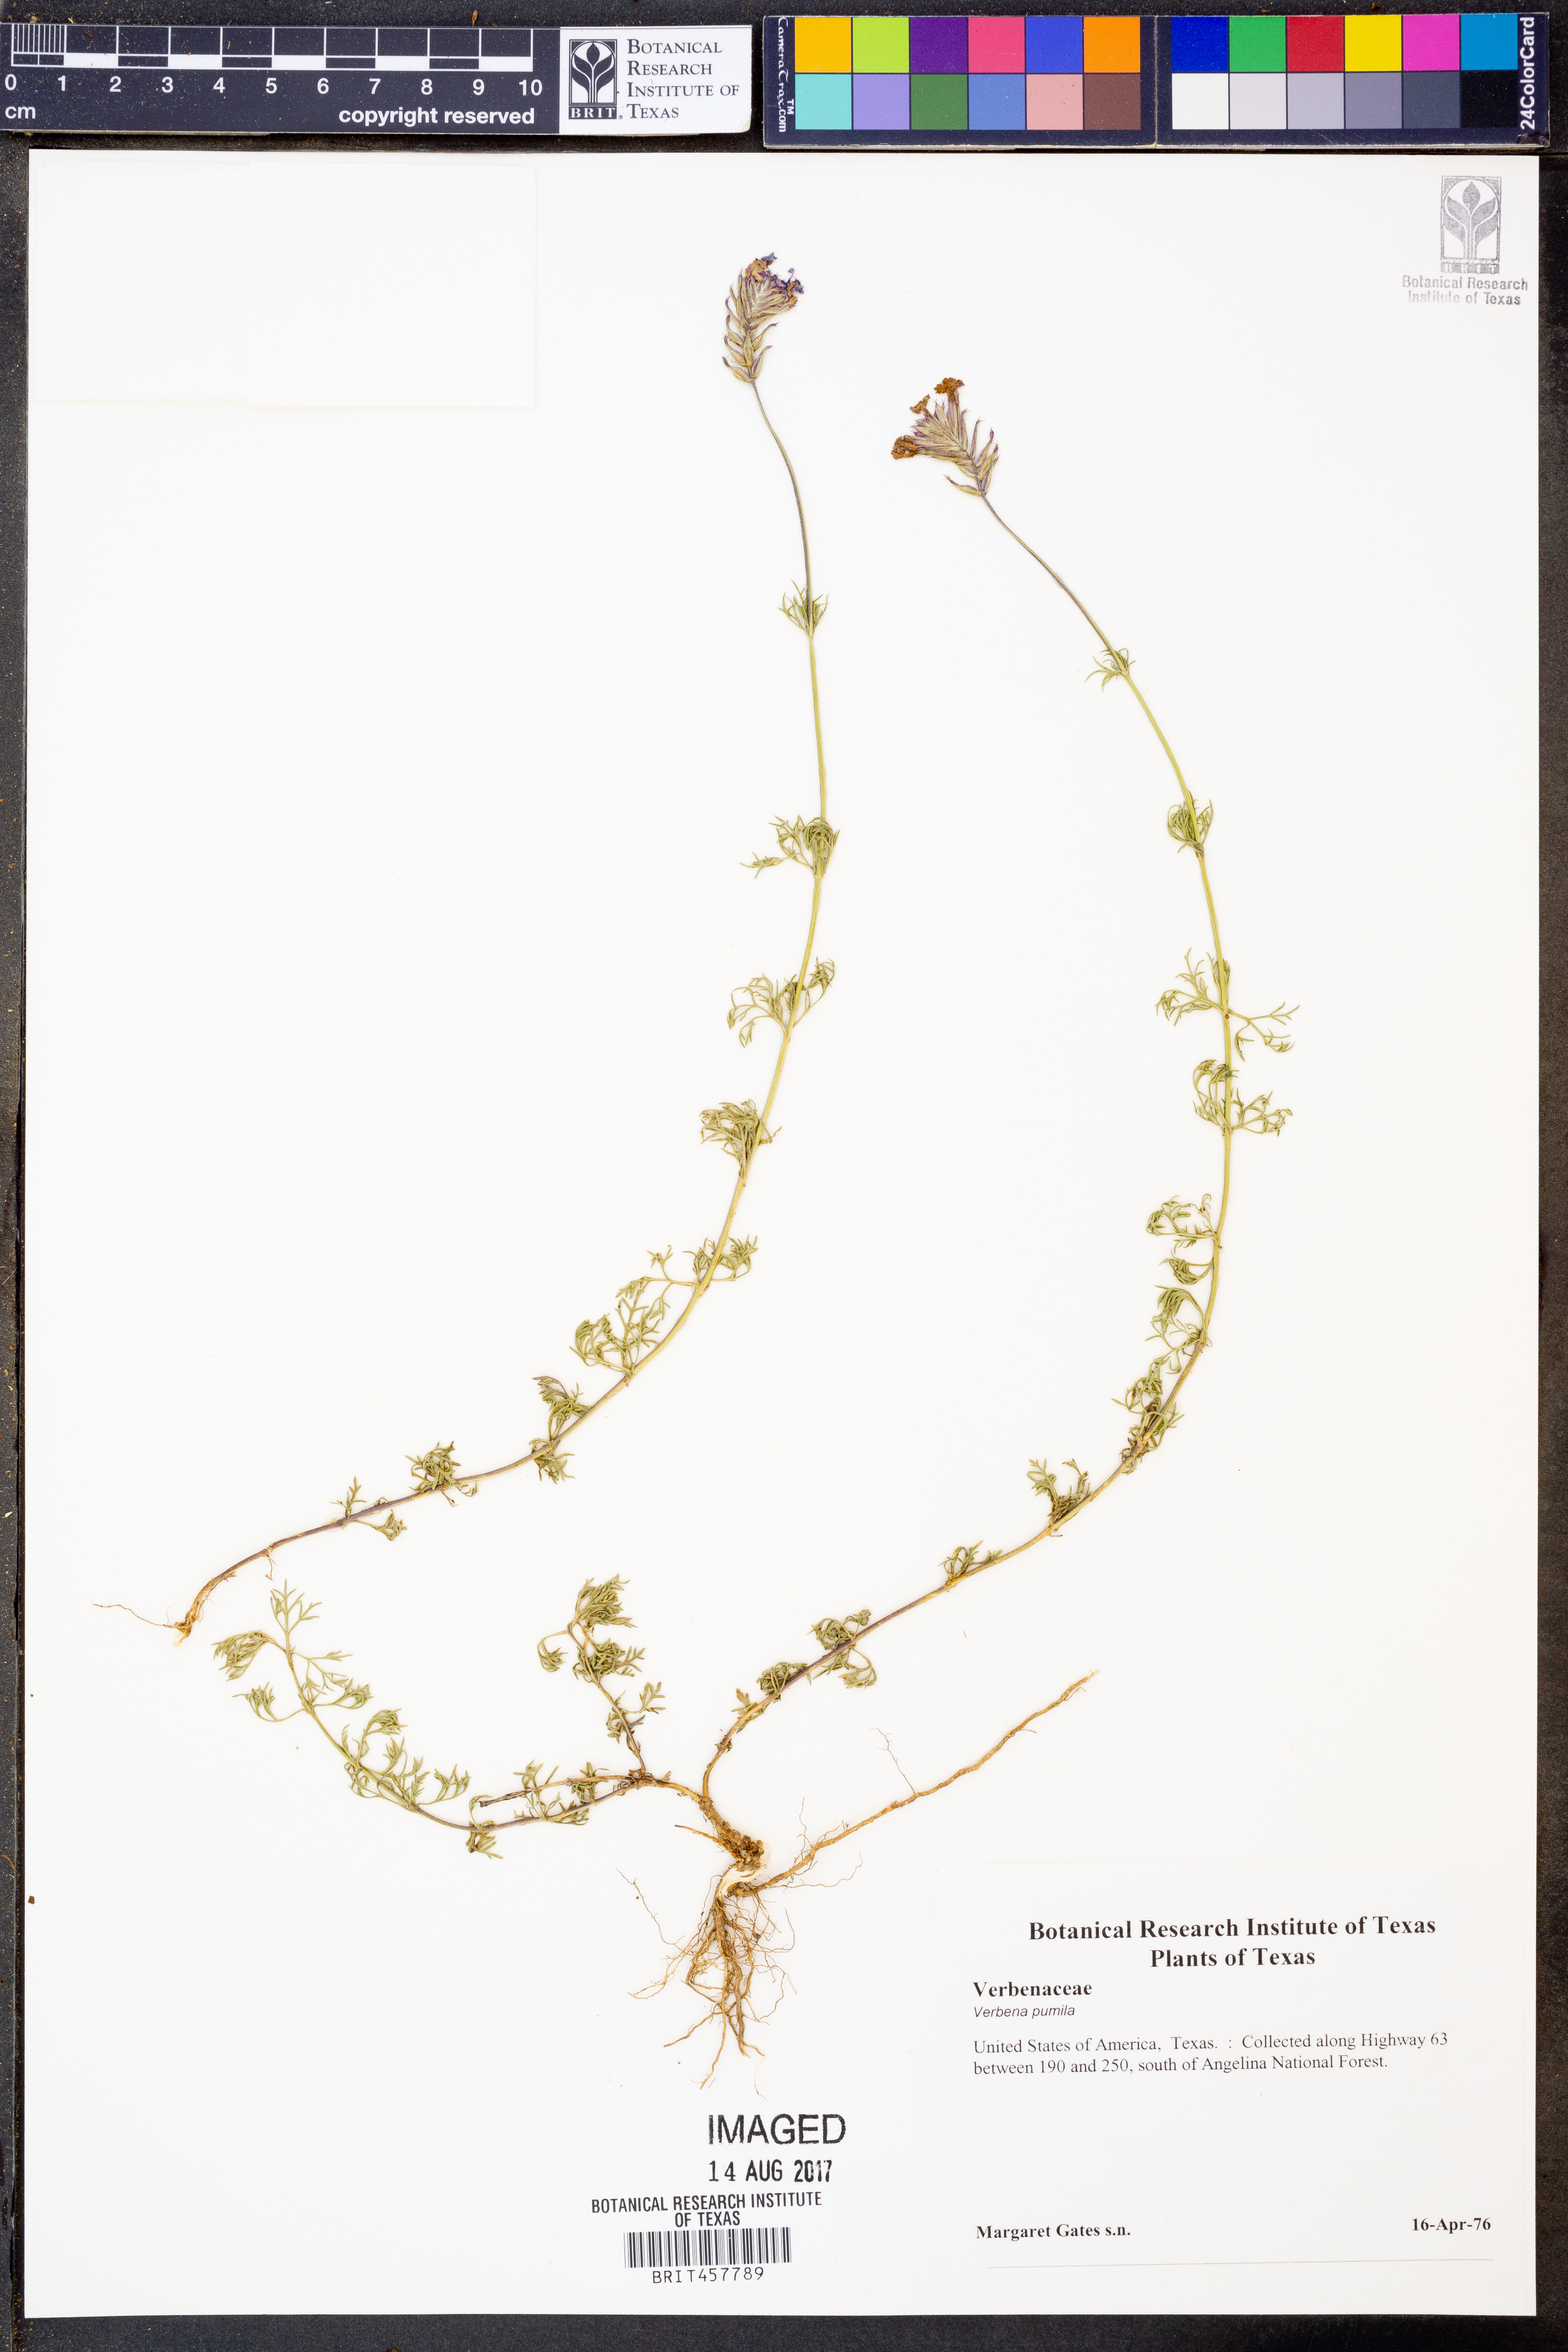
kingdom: Plantae
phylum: Tracheophyta
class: Magnoliopsida
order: Lamiales
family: Verbenaceae
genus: Verbena
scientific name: Verbena pumila
